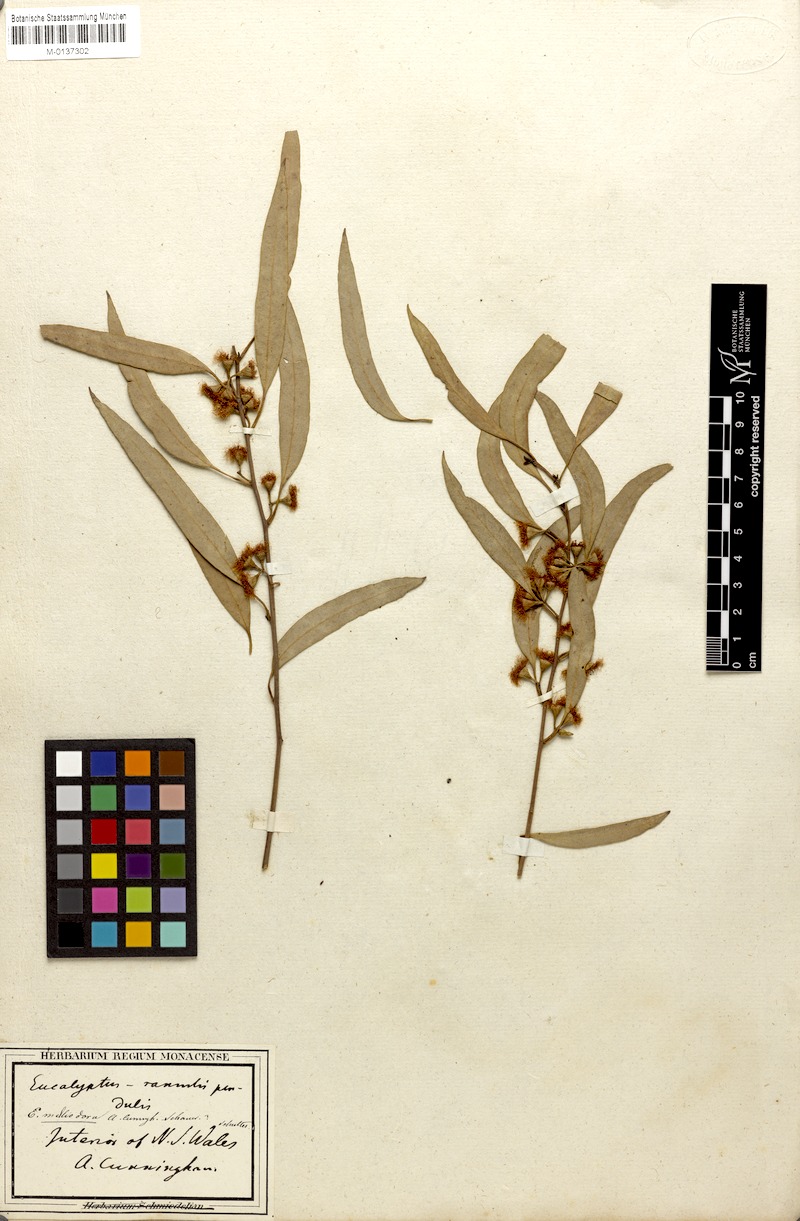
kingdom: Plantae
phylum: Tracheophyta
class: Magnoliopsida
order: Myrtales
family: Myrtaceae
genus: Eucalyptus
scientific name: Eucalyptus melliodora
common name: Yellow ironbox
